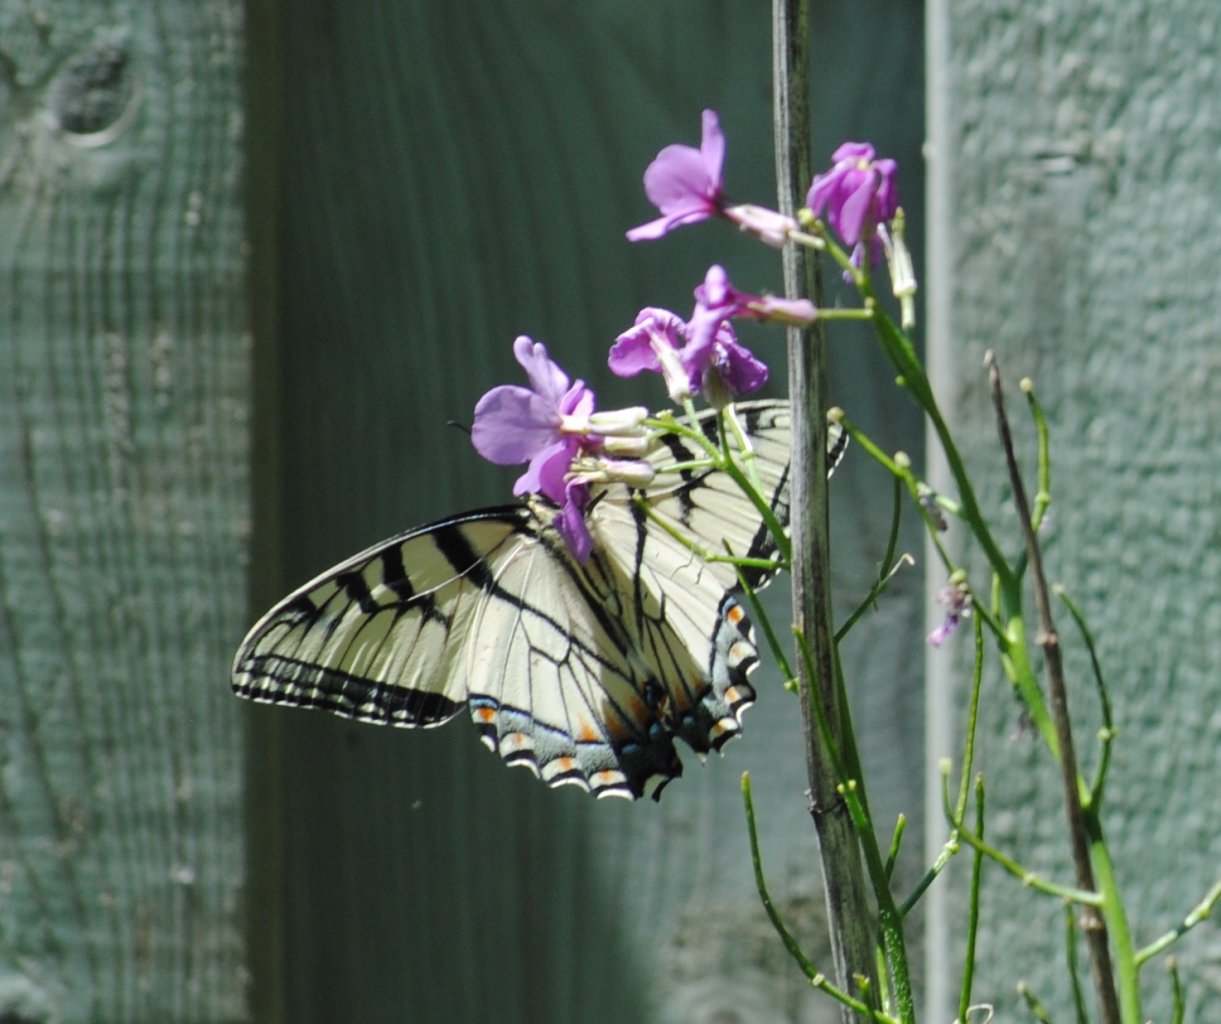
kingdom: Animalia
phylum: Arthropoda
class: Insecta
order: Lepidoptera
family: Papilionidae
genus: Pterourus
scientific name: Pterourus glaucus
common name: Eastern Tiger Swallowtail
